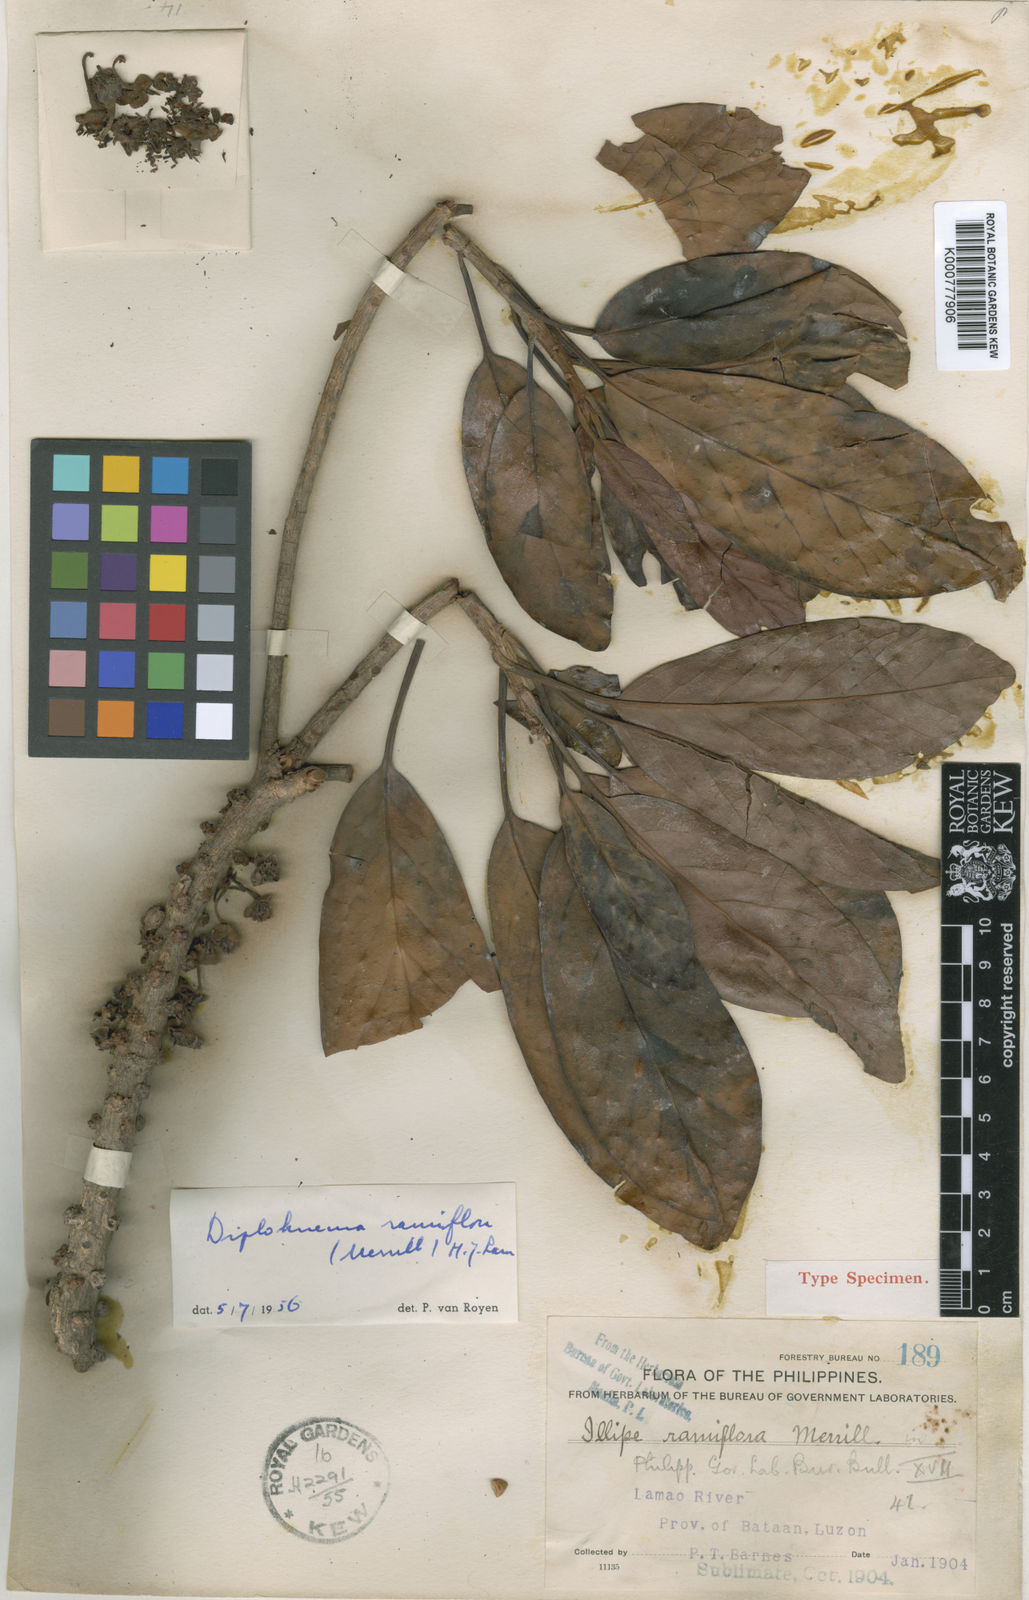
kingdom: Plantae
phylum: Tracheophyta
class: Magnoliopsida
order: Ericales
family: Sapotaceae
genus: Diploknema
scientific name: Diploknema ramiflora
